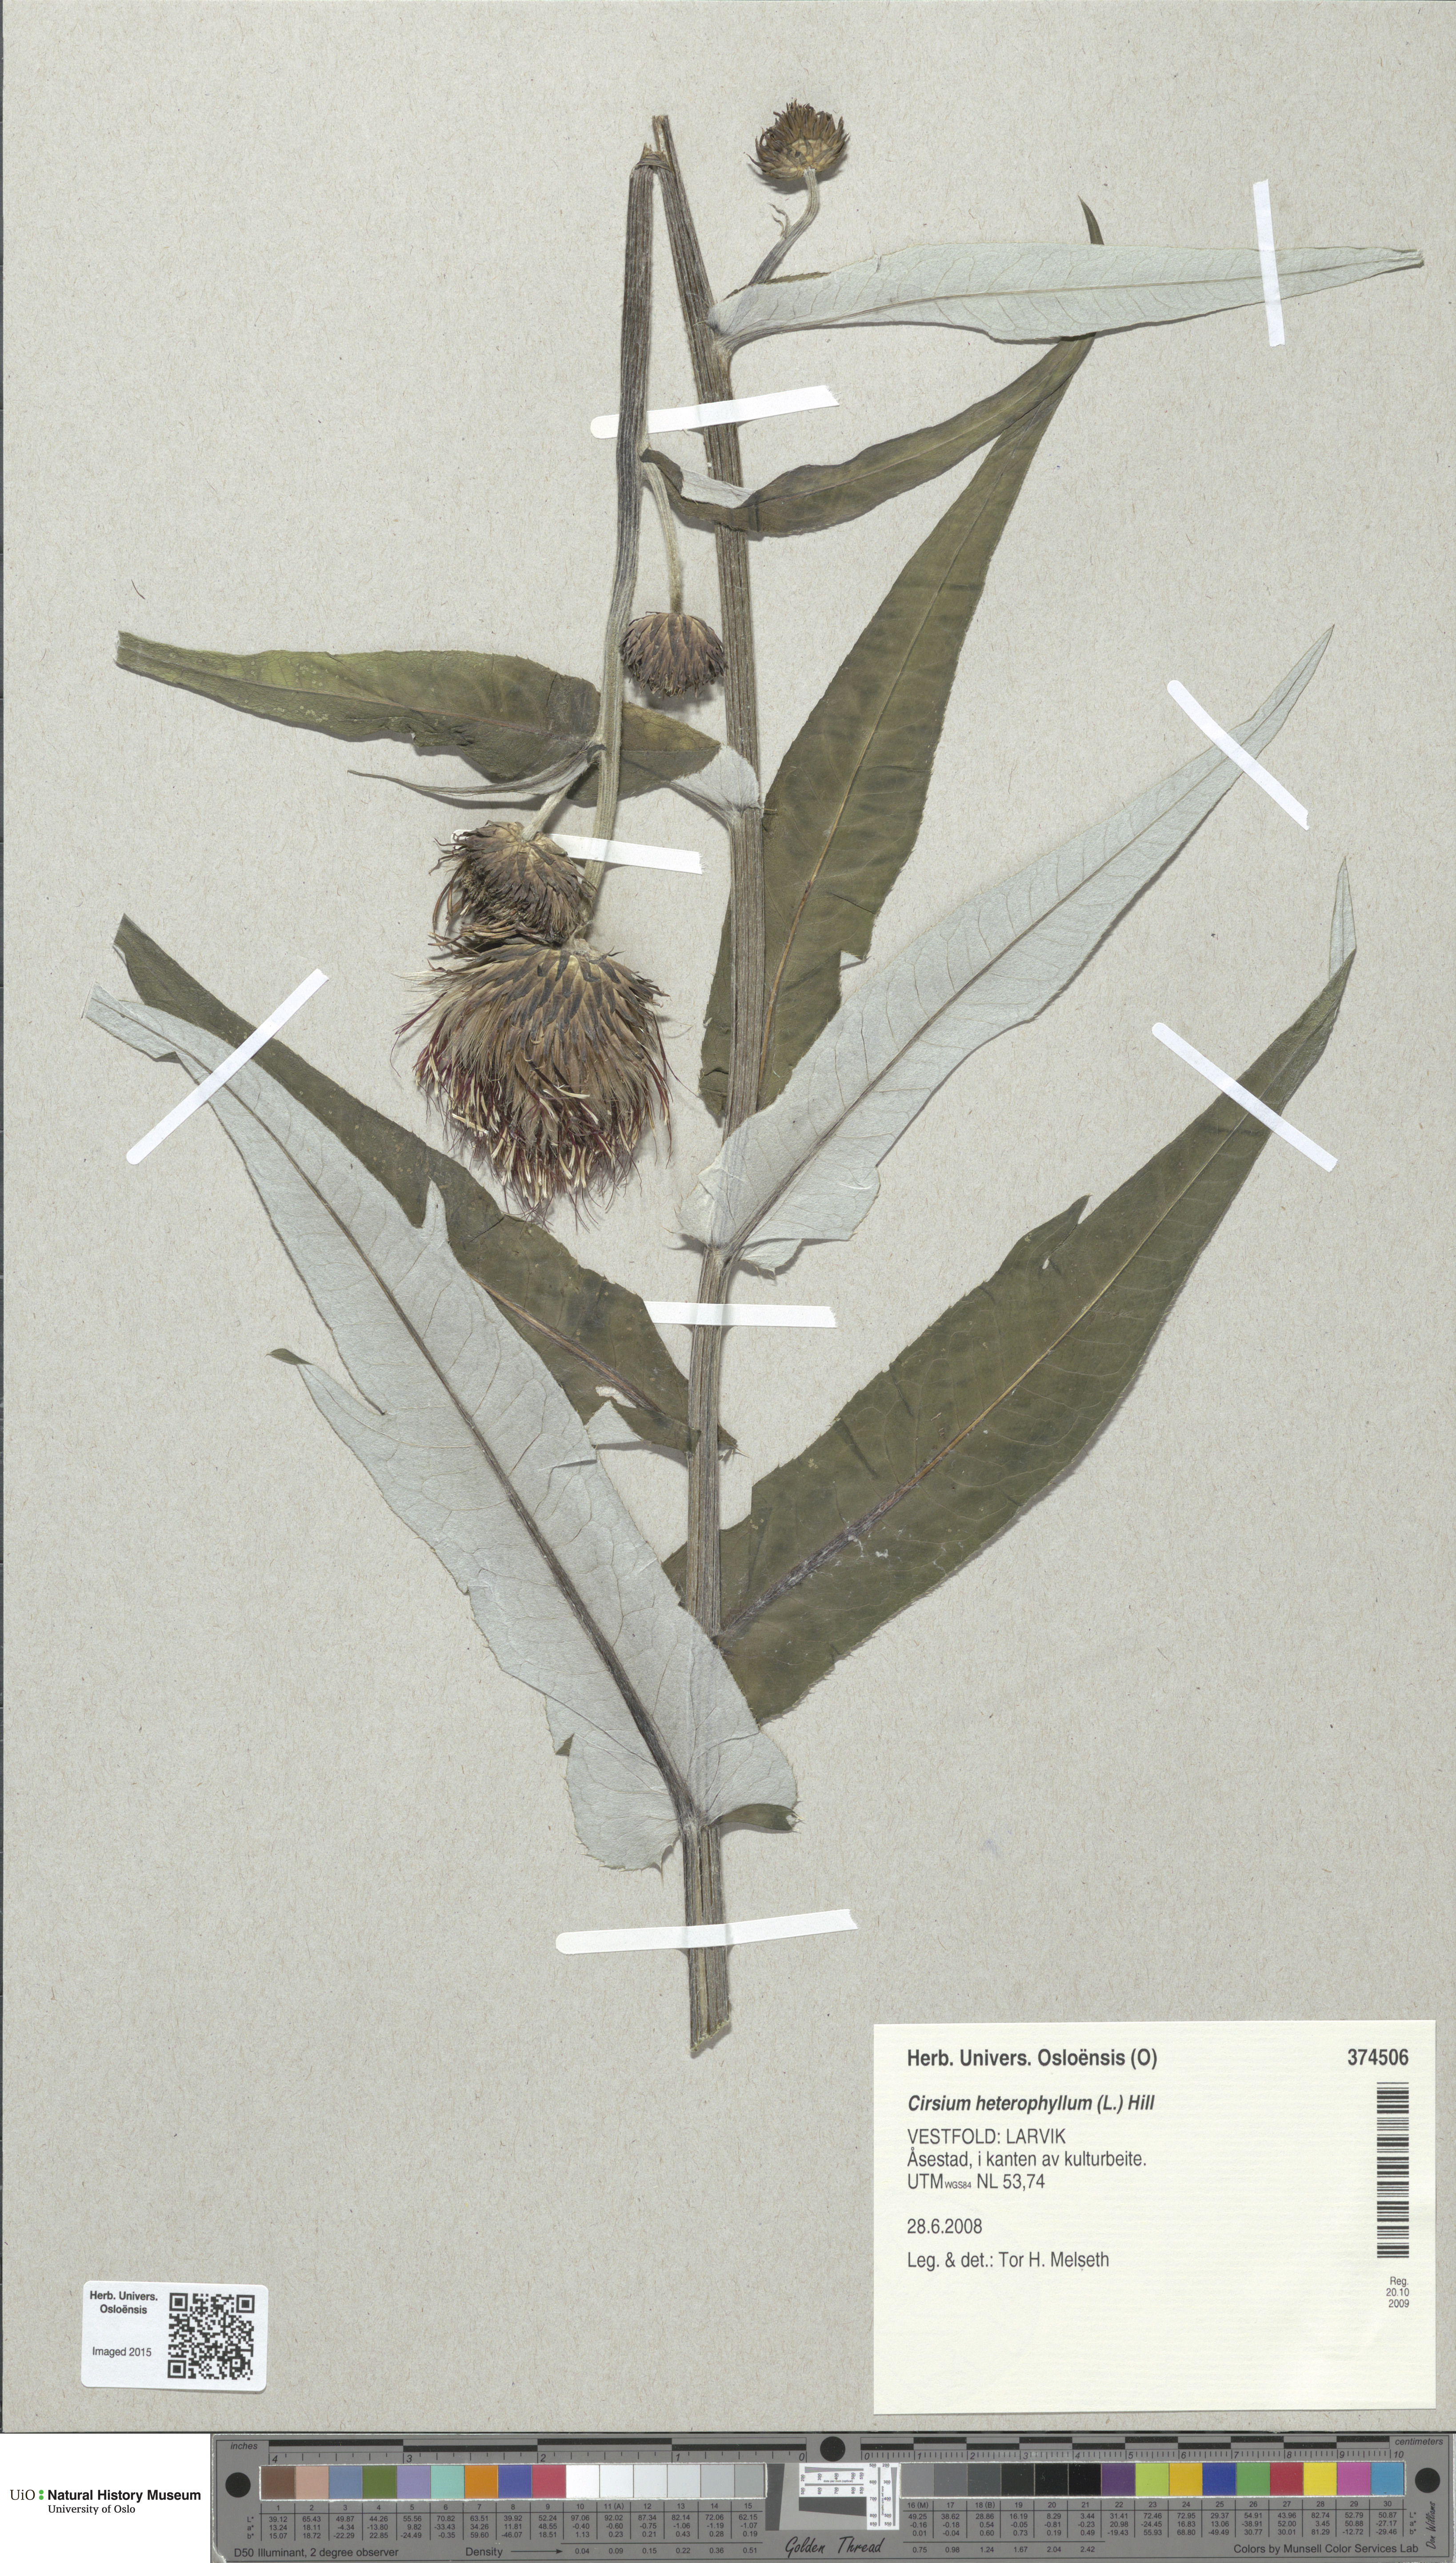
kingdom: Plantae
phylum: Tracheophyta
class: Magnoliopsida
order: Asterales
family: Asteraceae
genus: Cirsium
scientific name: Cirsium heterophyllum
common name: Melancholy thistle
